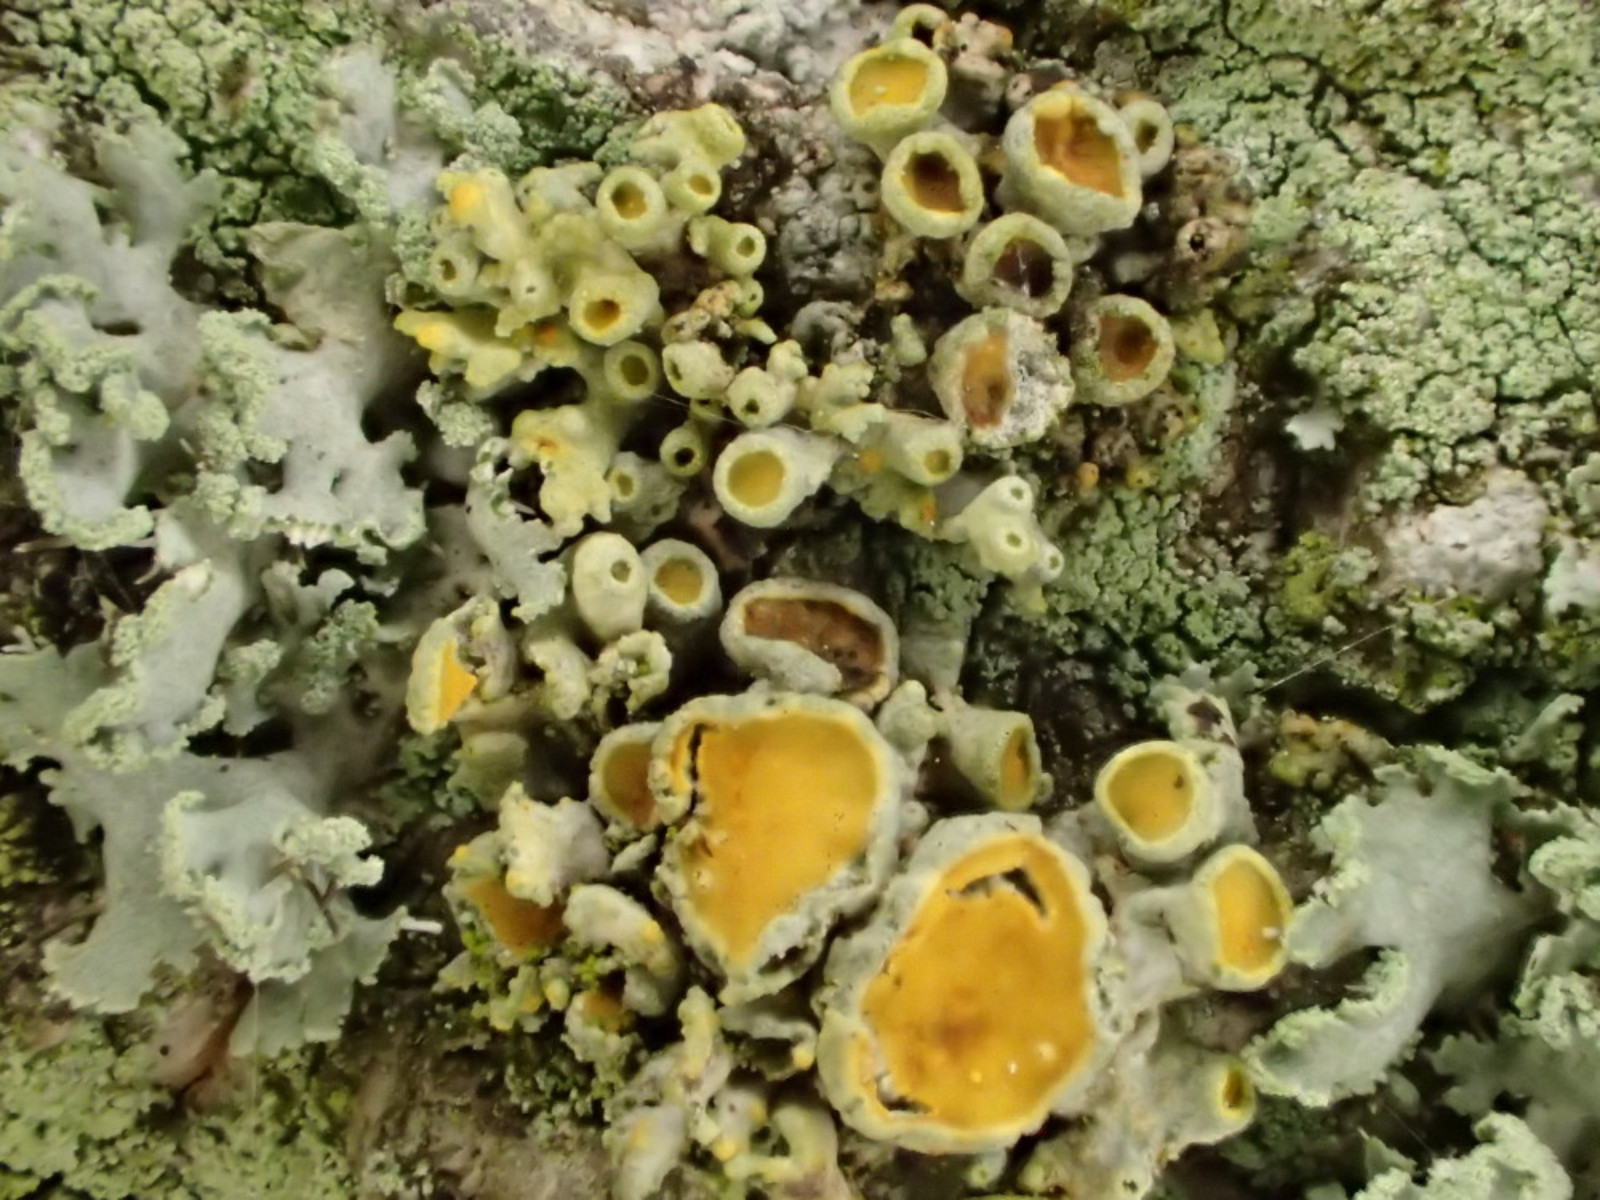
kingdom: Fungi
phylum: Ascomycota
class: Lecanoromycetes
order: Teloschistales
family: Teloschistaceae
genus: Polycauliona
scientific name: Polycauliona polycarpa
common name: mangefrugtet orangelav
